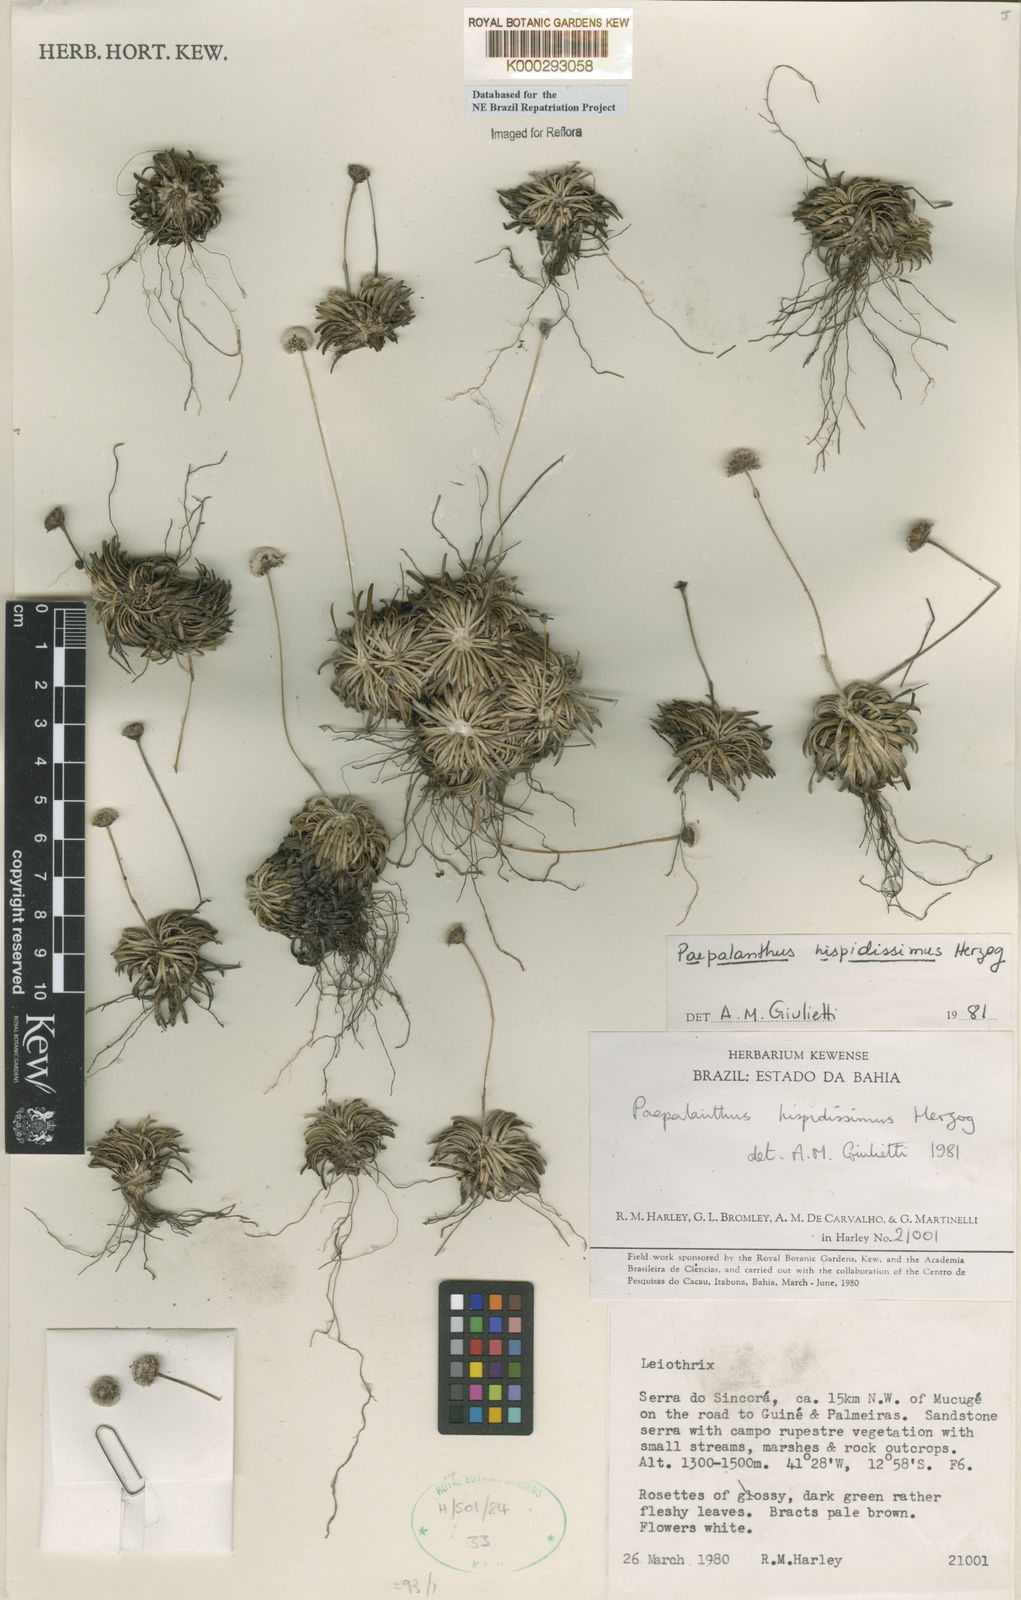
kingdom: Plantae
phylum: Tracheophyta
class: Liliopsida
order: Poales
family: Eriocaulaceae
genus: Paepalanthus
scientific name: Paepalanthus pulvinatus
